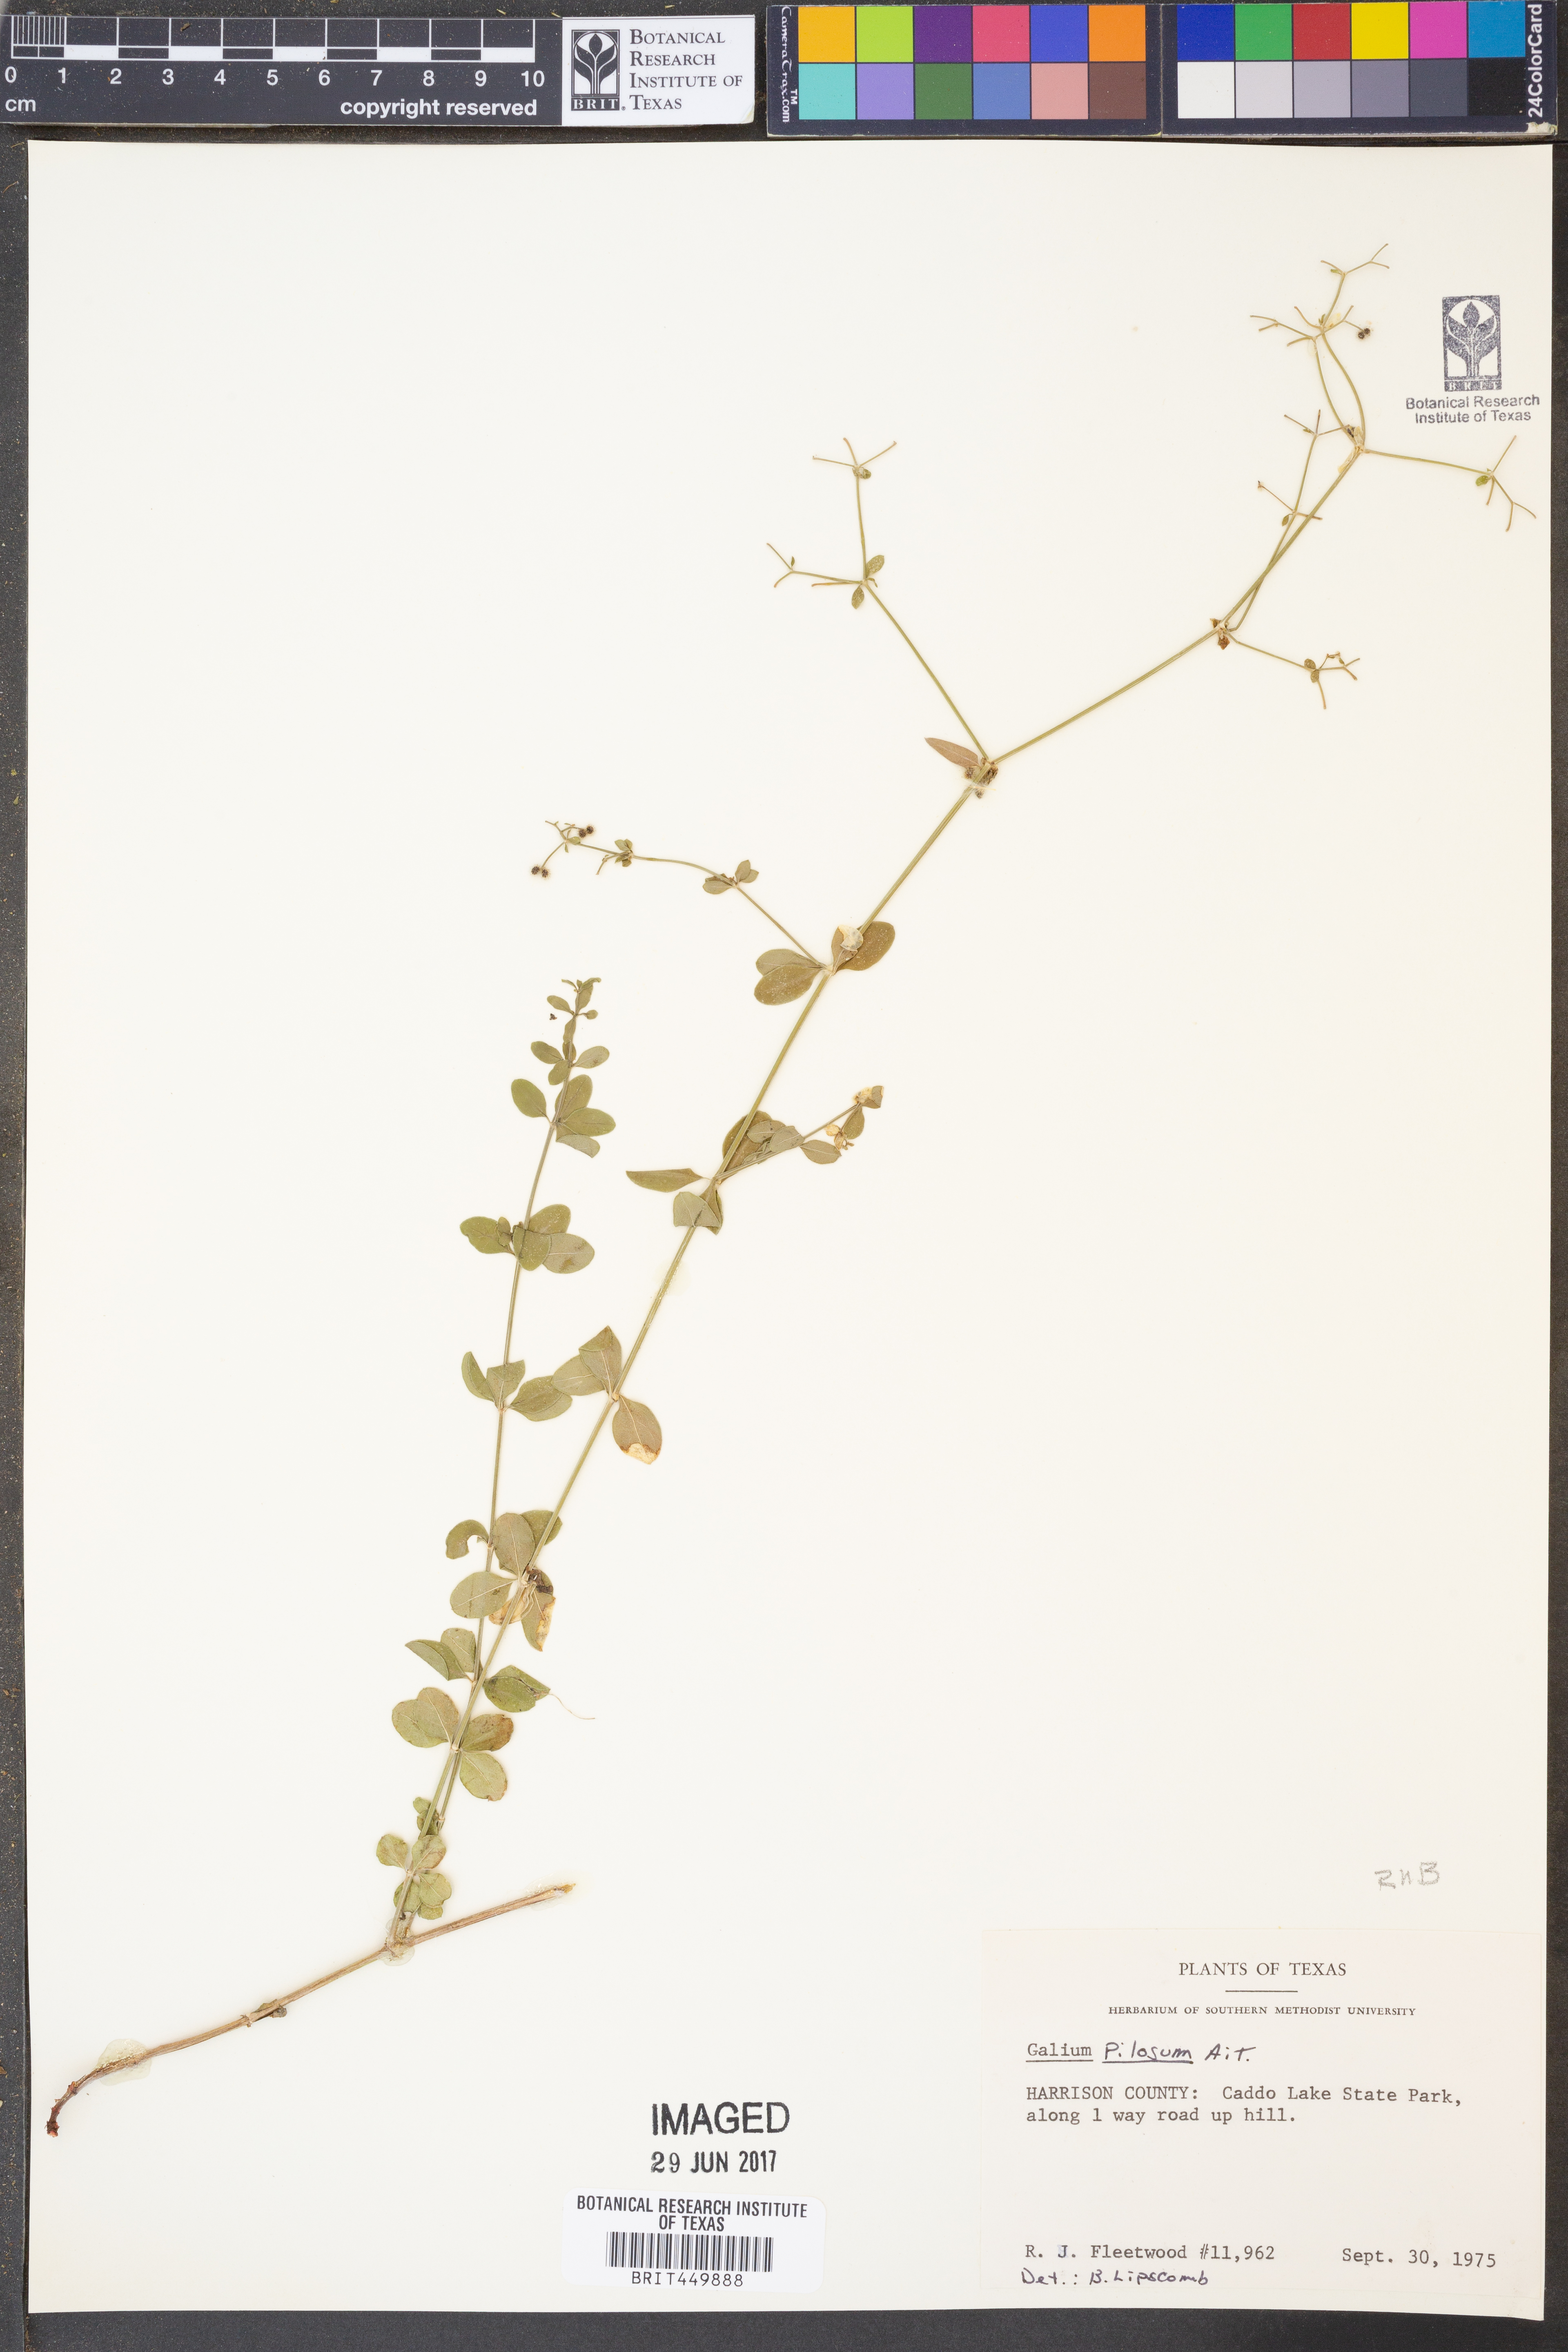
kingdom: Plantae
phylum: Tracheophyta
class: Magnoliopsida
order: Gentianales
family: Rubiaceae
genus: Galium
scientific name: Galium pilosum
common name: Hairy bedstraw
